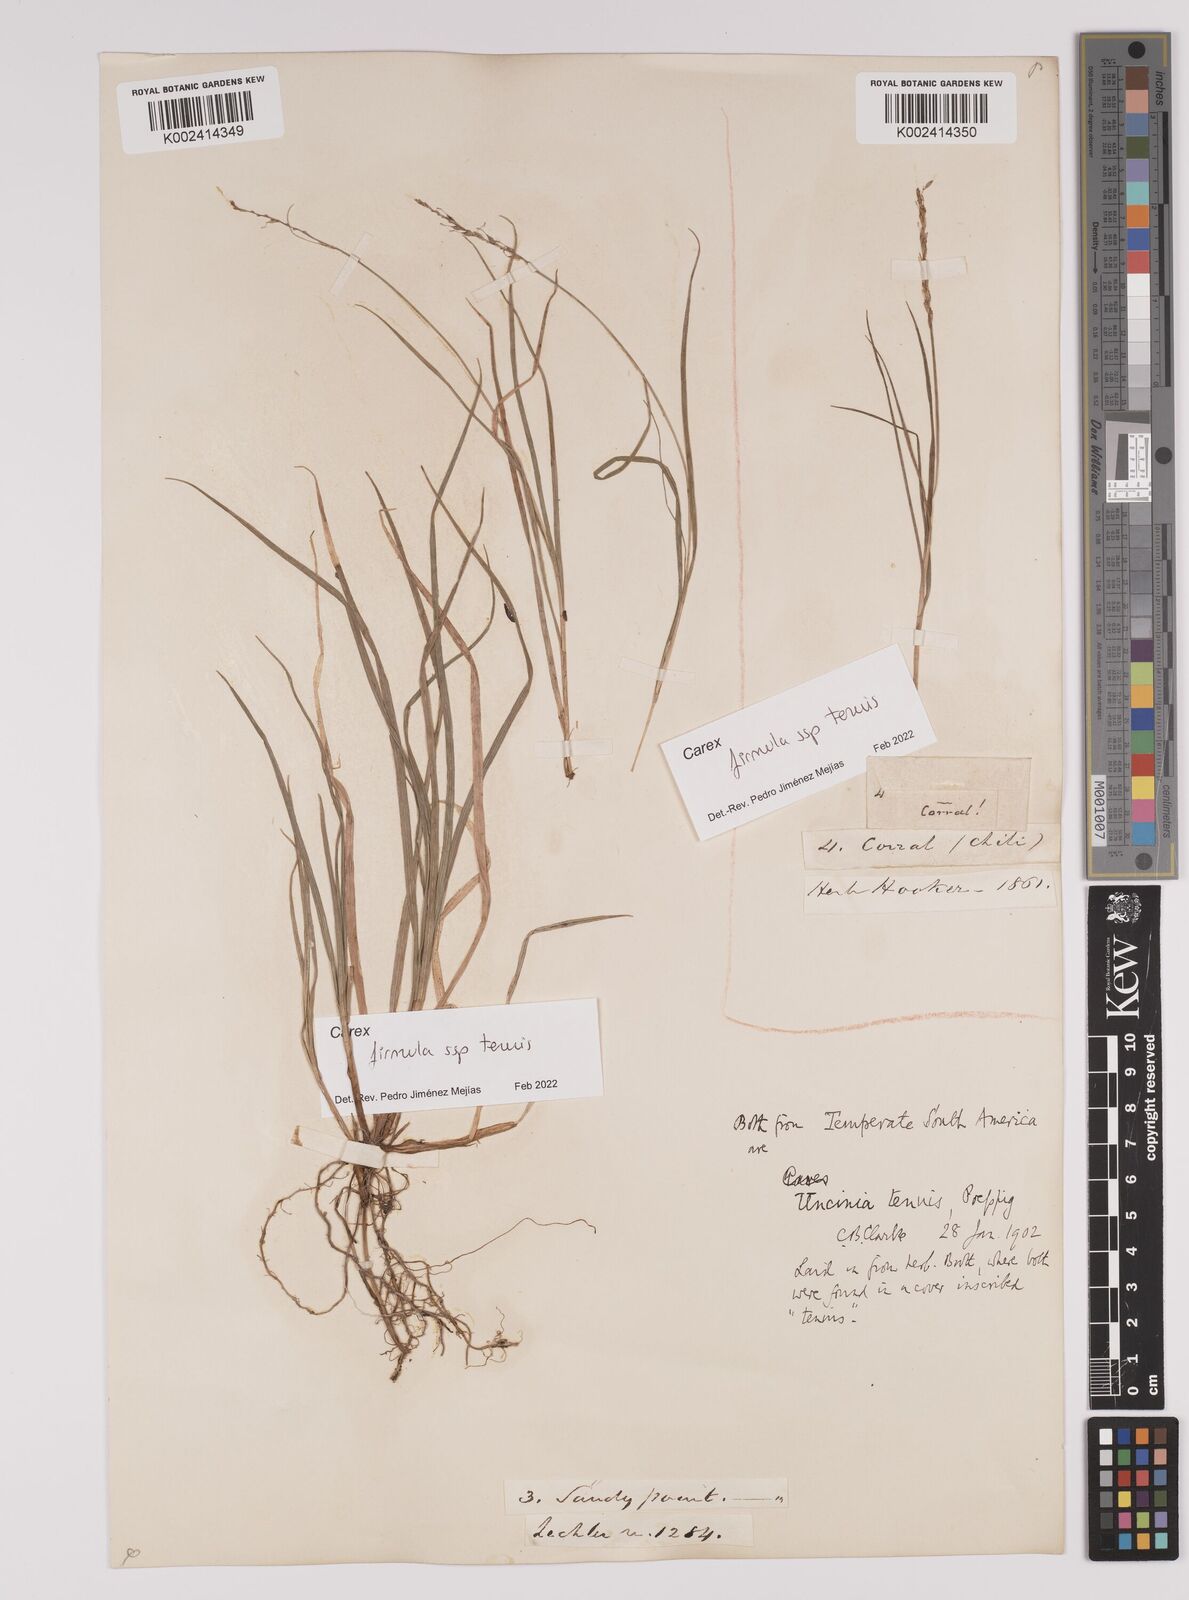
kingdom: Plantae
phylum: Tracheophyta
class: Liliopsida
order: Poales
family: Cyperaceae
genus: Carex
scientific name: Carex firmula
